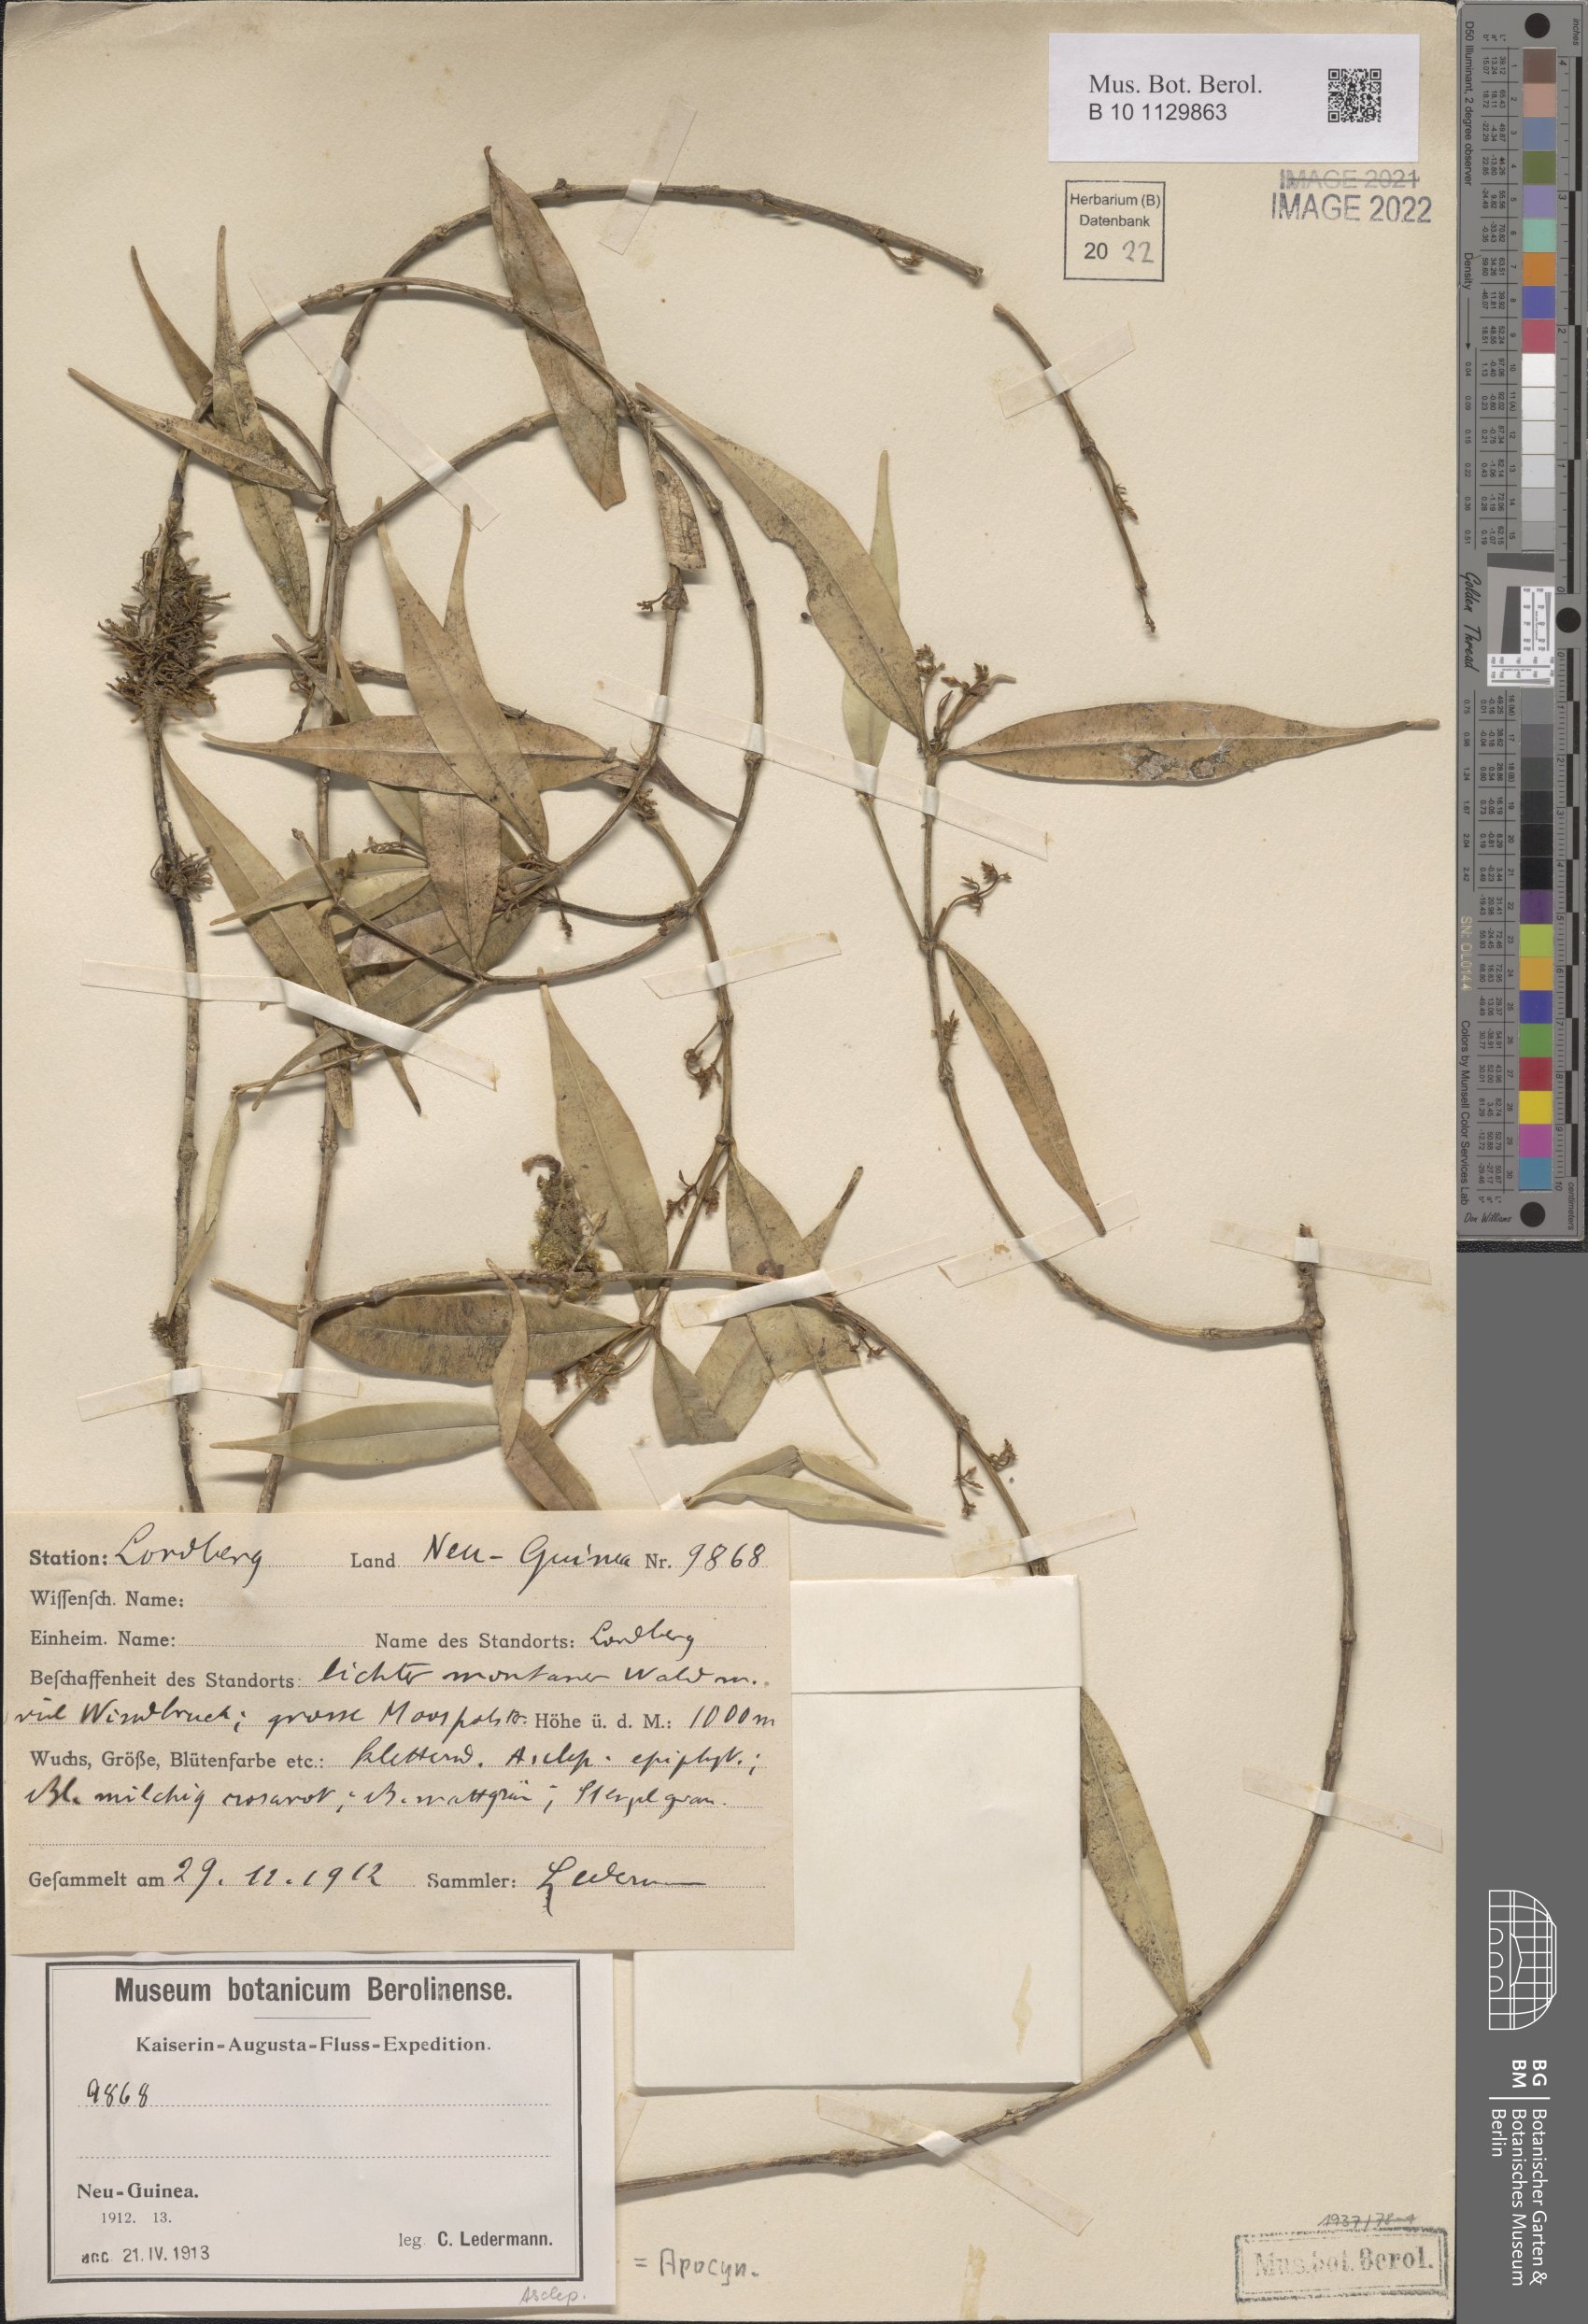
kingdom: Plantae
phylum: Tracheophyta
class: Magnoliopsida
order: Gentianales
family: Apocynaceae
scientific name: Apocynaceae
